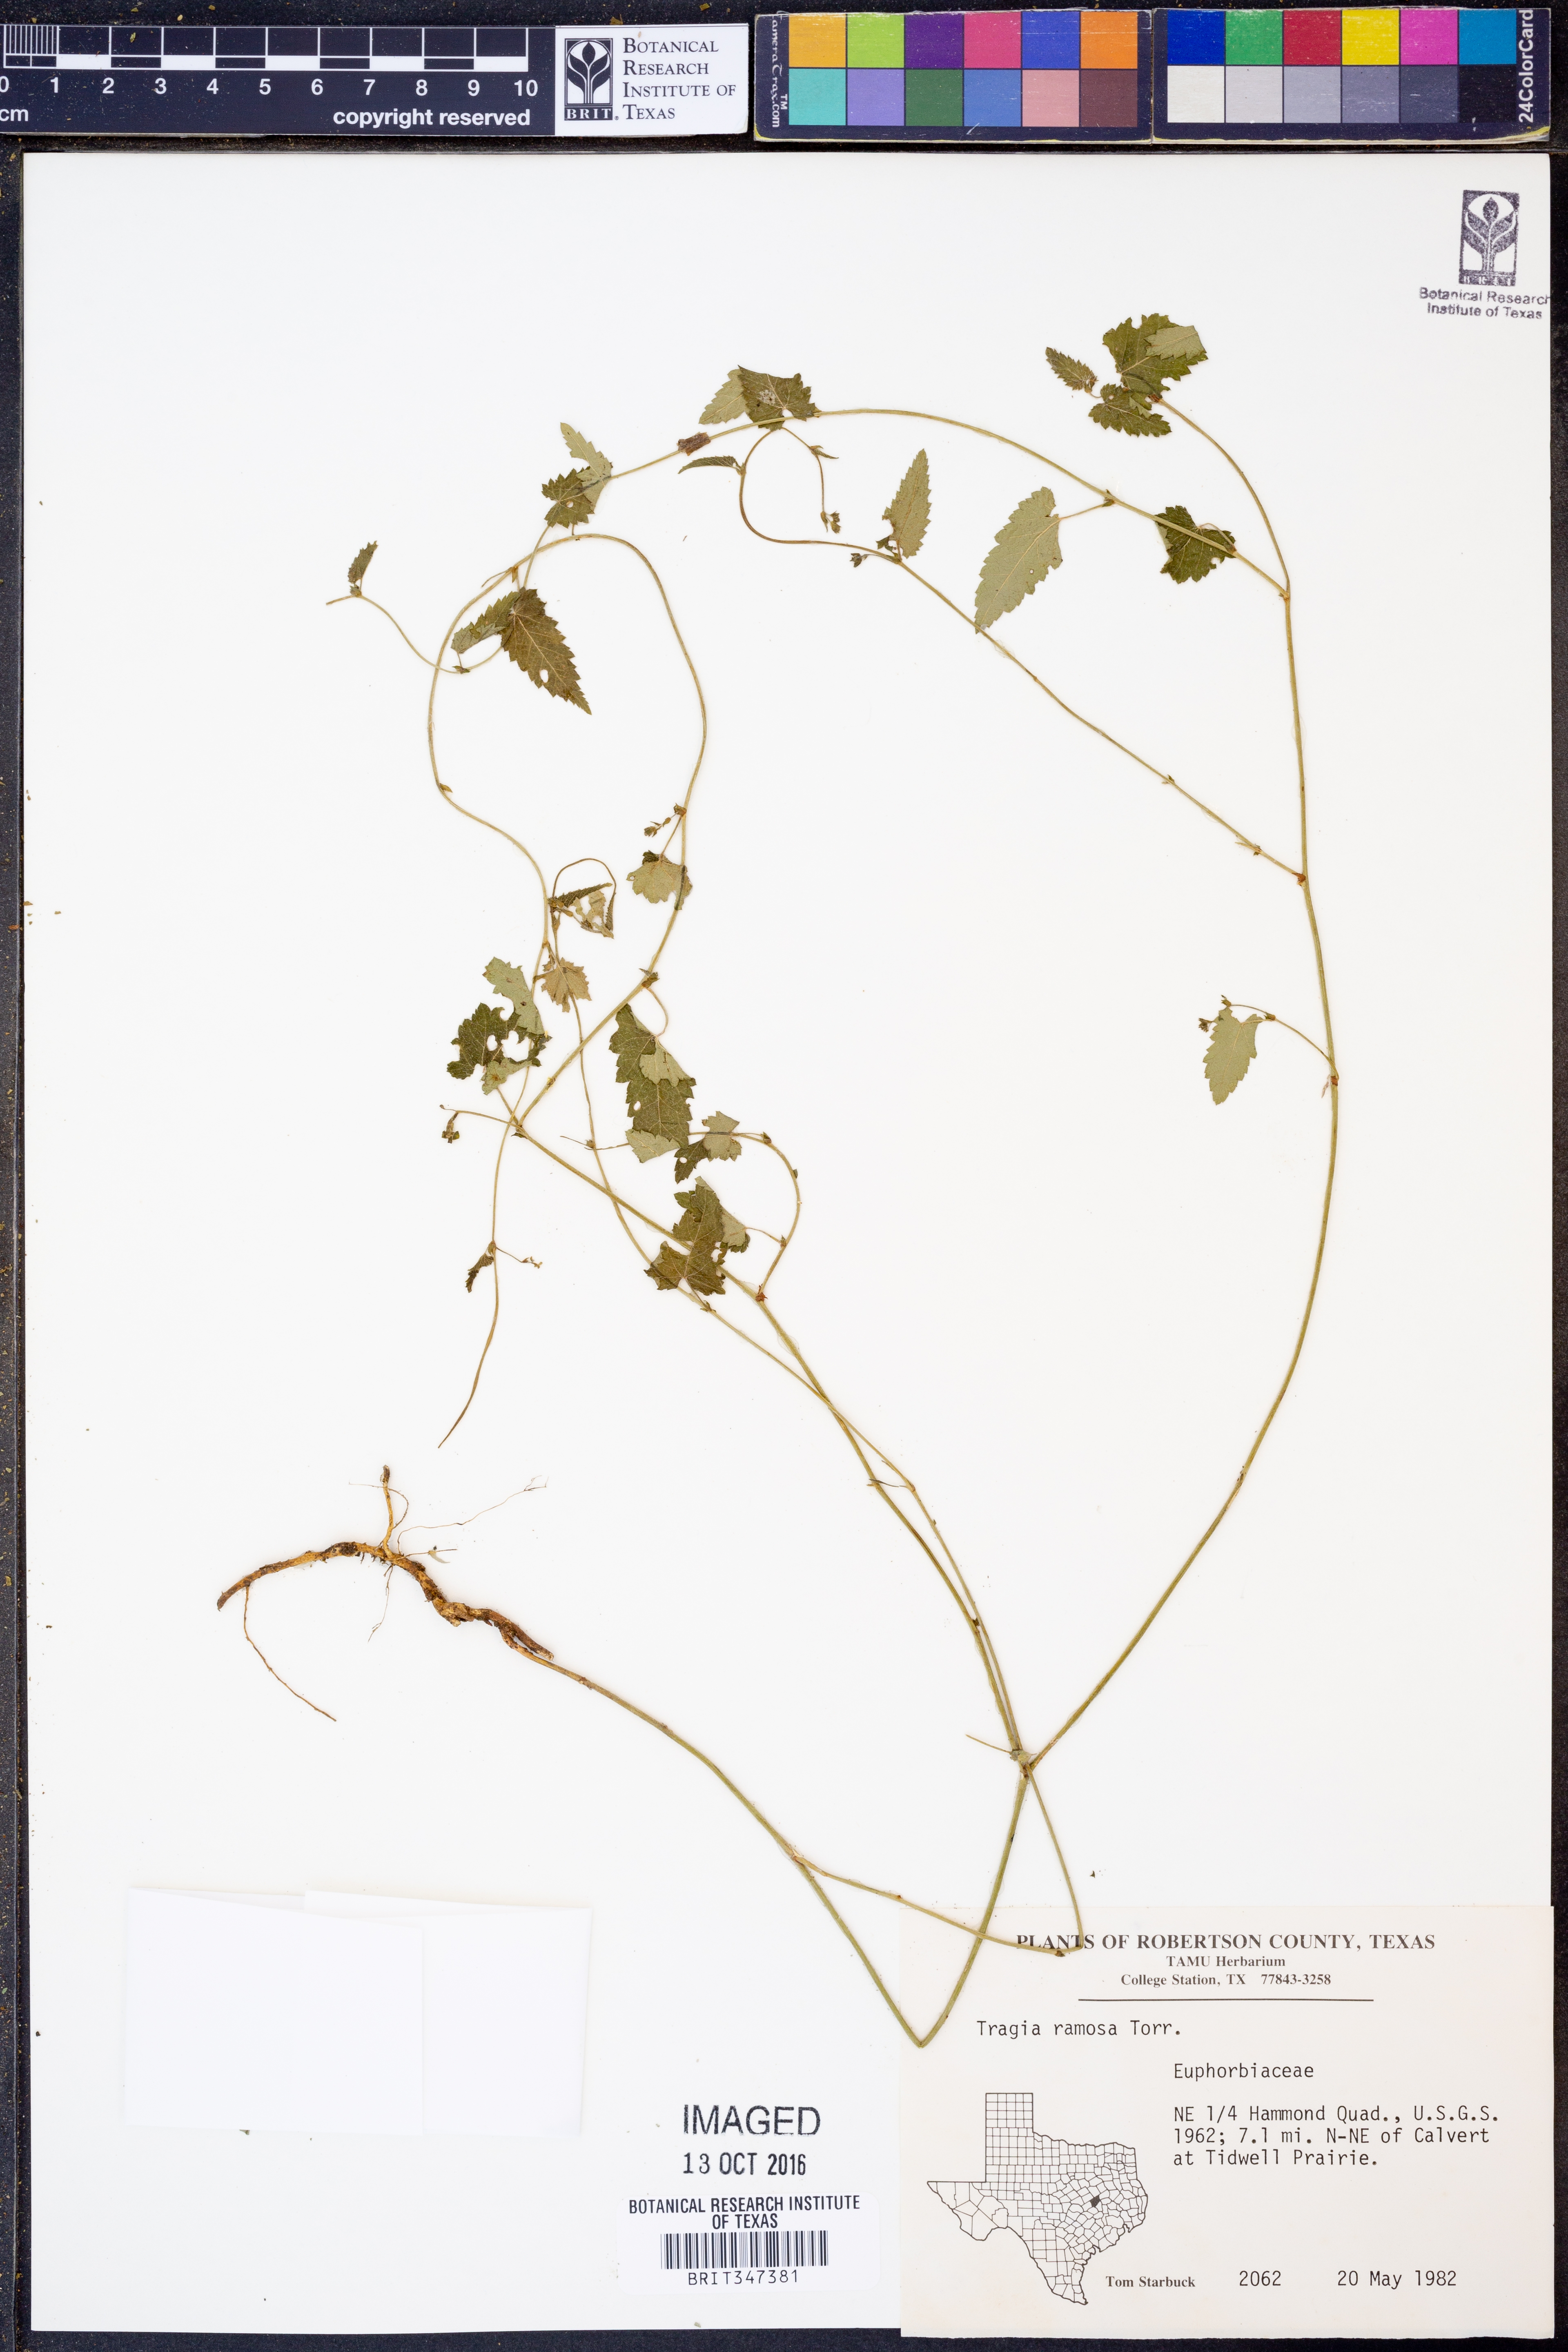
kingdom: Plantae
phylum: Tracheophyta
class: Magnoliopsida
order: Malpighiales
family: Euphorbiaceae
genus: Tragia
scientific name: Tragia ramosa
